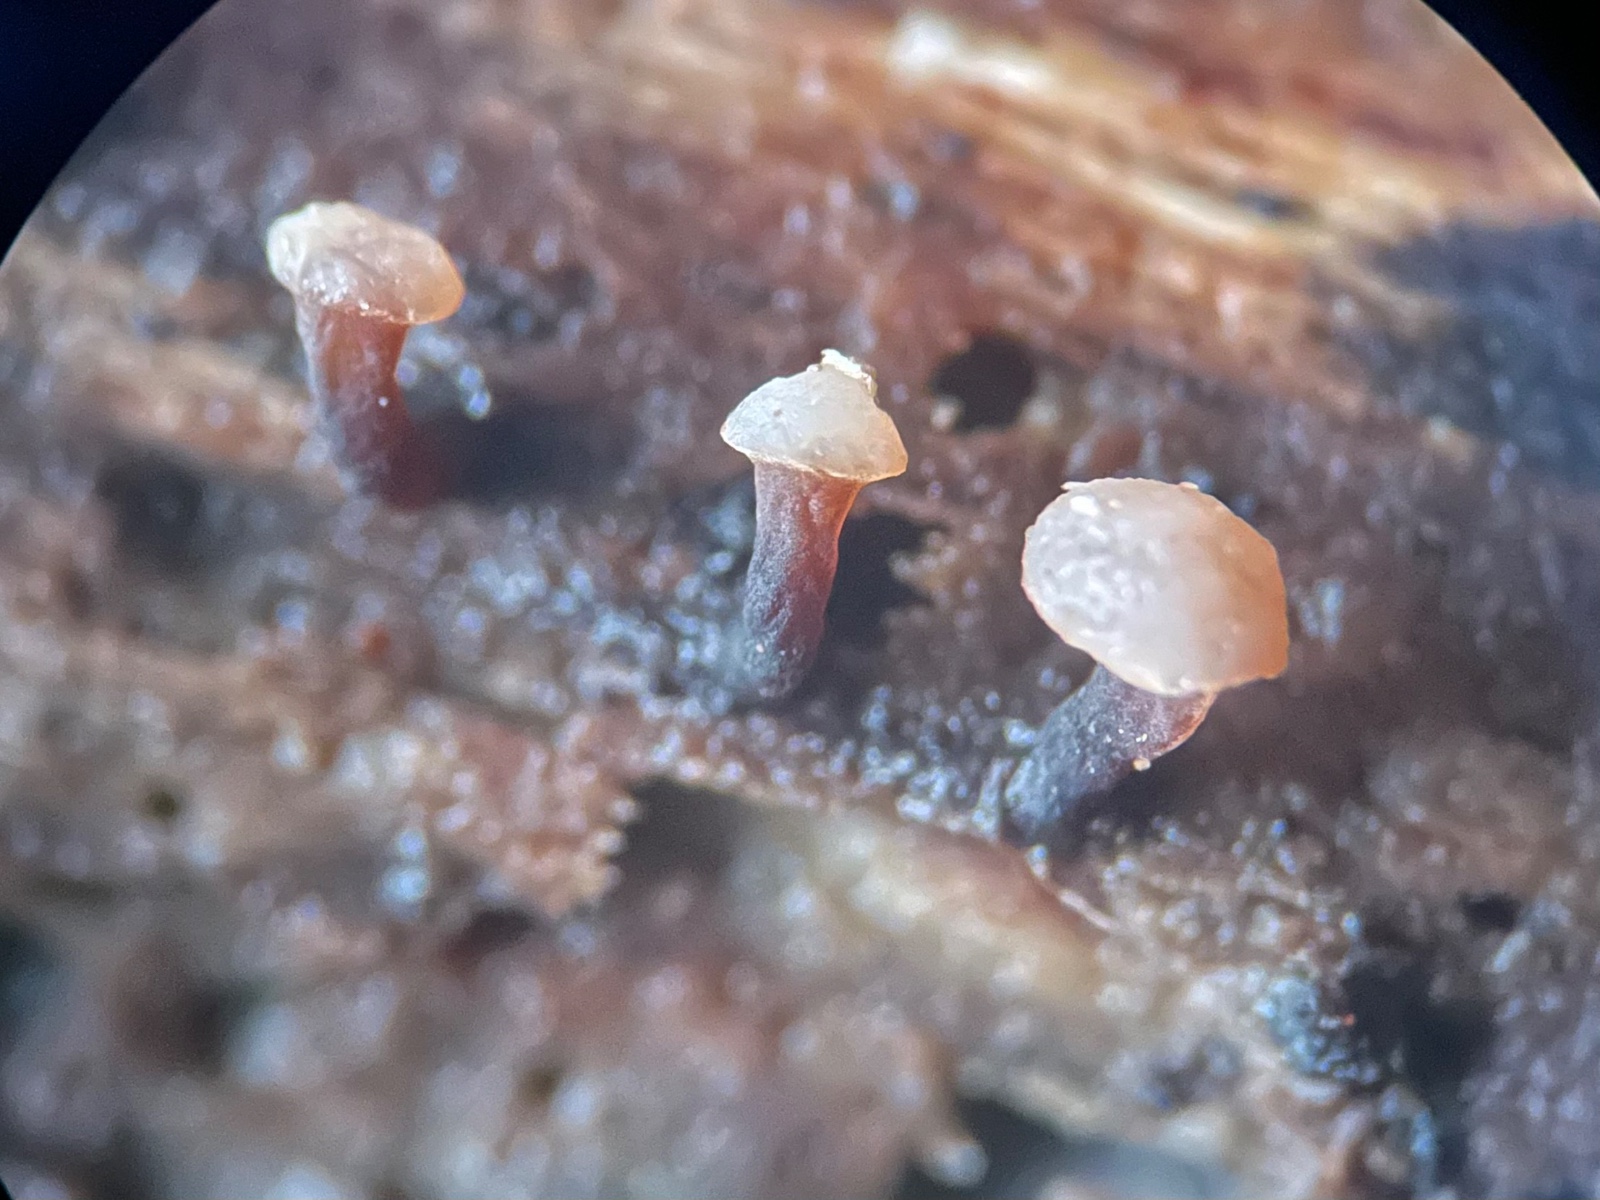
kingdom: Fungi
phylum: Ascomycota
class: Leotiomycetes
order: Helotiales
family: Gelatinodiscaceae
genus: Ascocoryne
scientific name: Ascocoryne albida
